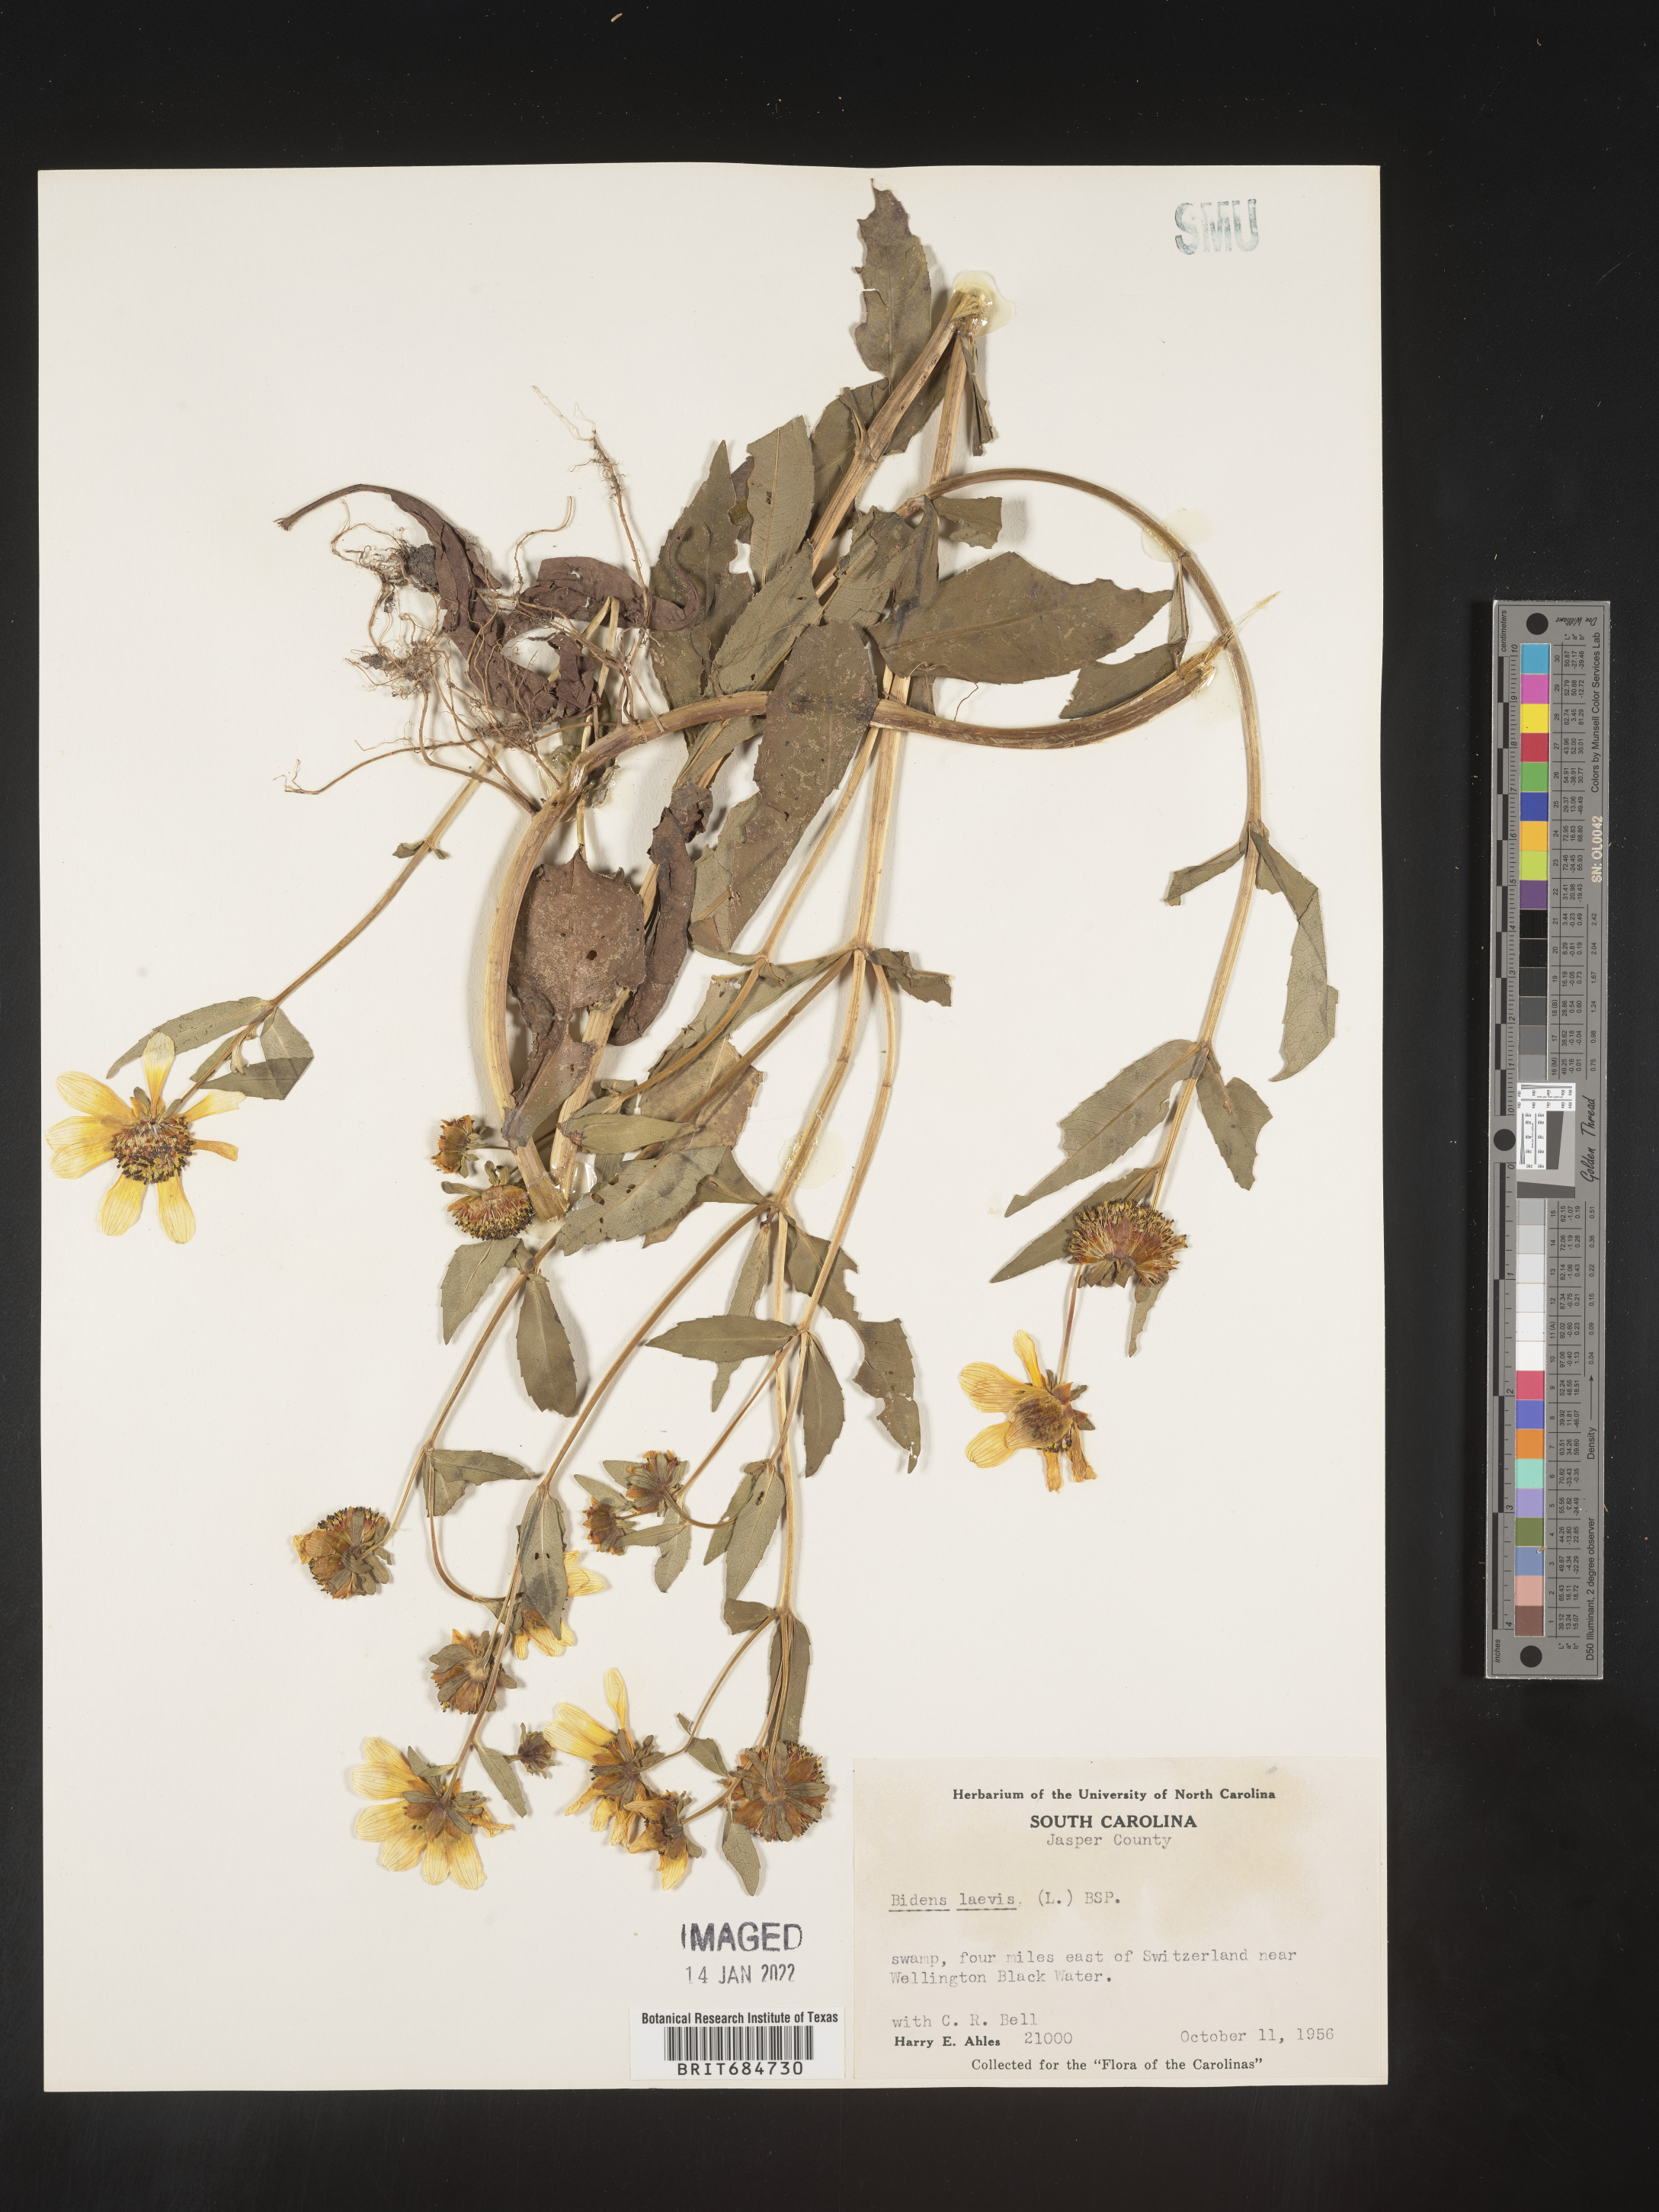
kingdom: Plantae
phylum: Tracheophyta
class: Magnoliopsida
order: Asterales
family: Asteraceae
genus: Bidens
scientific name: Bidens laevis
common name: Larger bur-marigold
